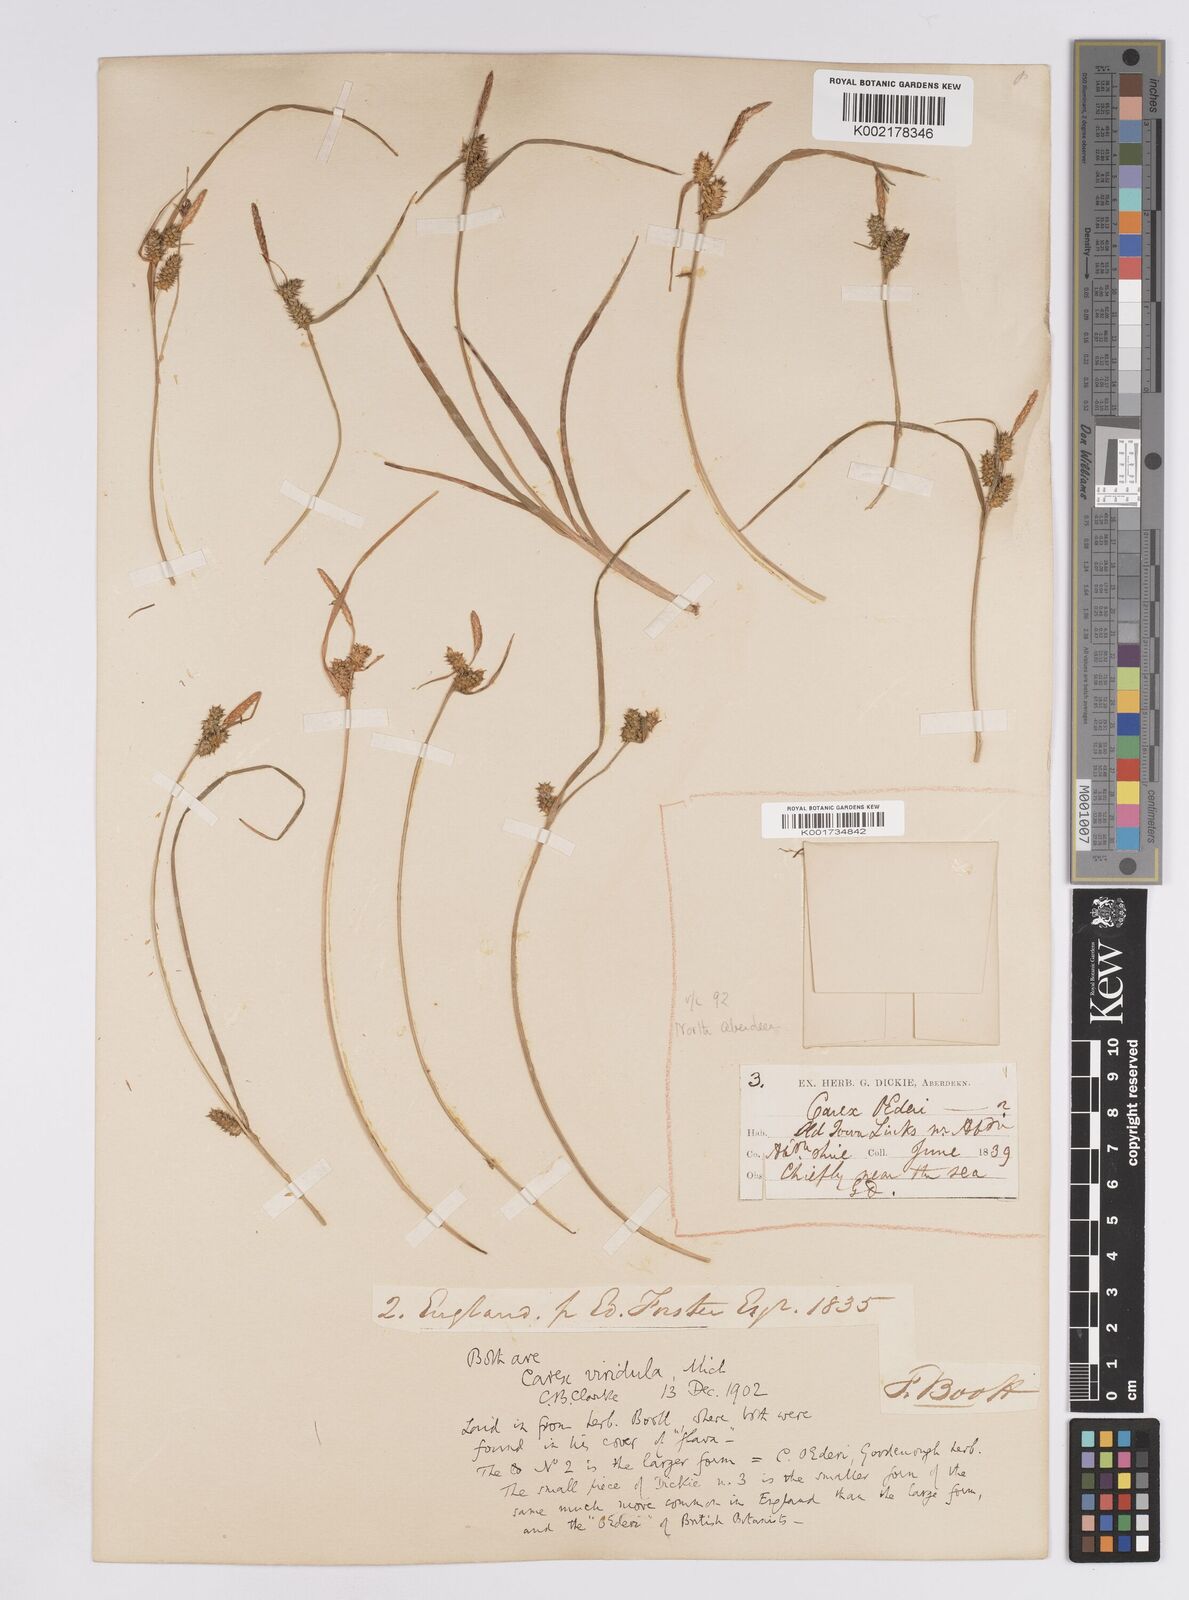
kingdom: Plantae
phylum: Tracheophyta
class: Liliopsida
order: Poales
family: Cyperaceae
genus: Carex
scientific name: Carex demissa
